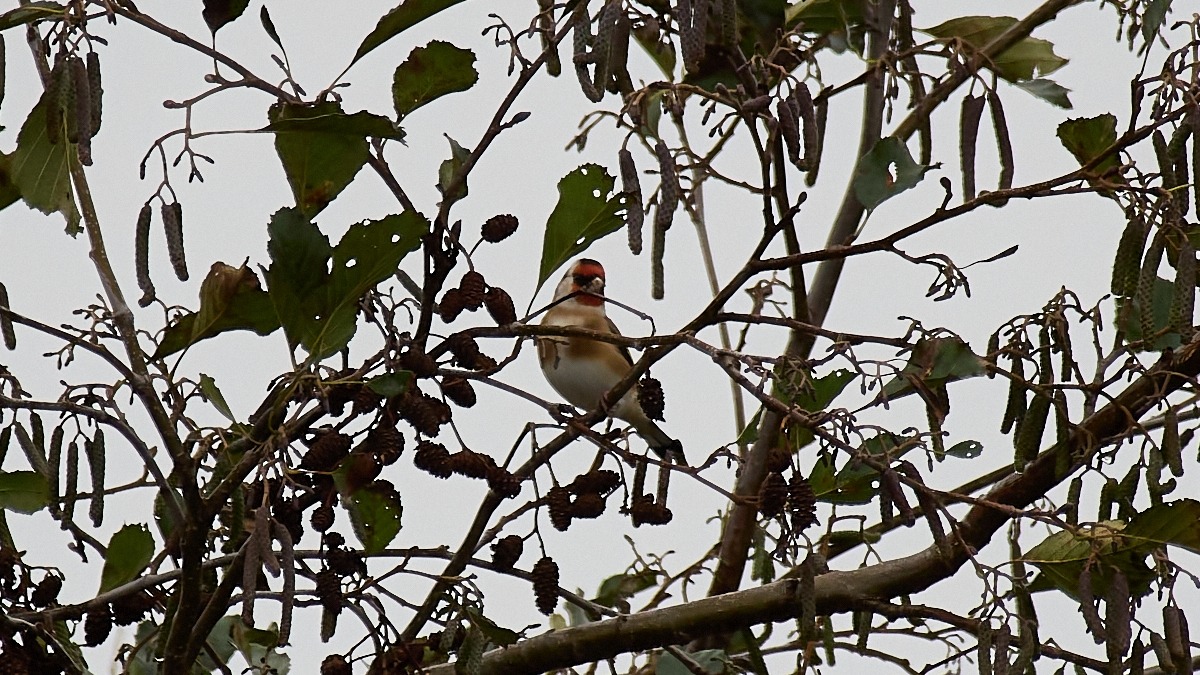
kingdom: Animalia
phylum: Chordata
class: Aves
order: Passeriformes
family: Fringillidae
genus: Carduelis
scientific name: Carduelis carduelis
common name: Stillits
